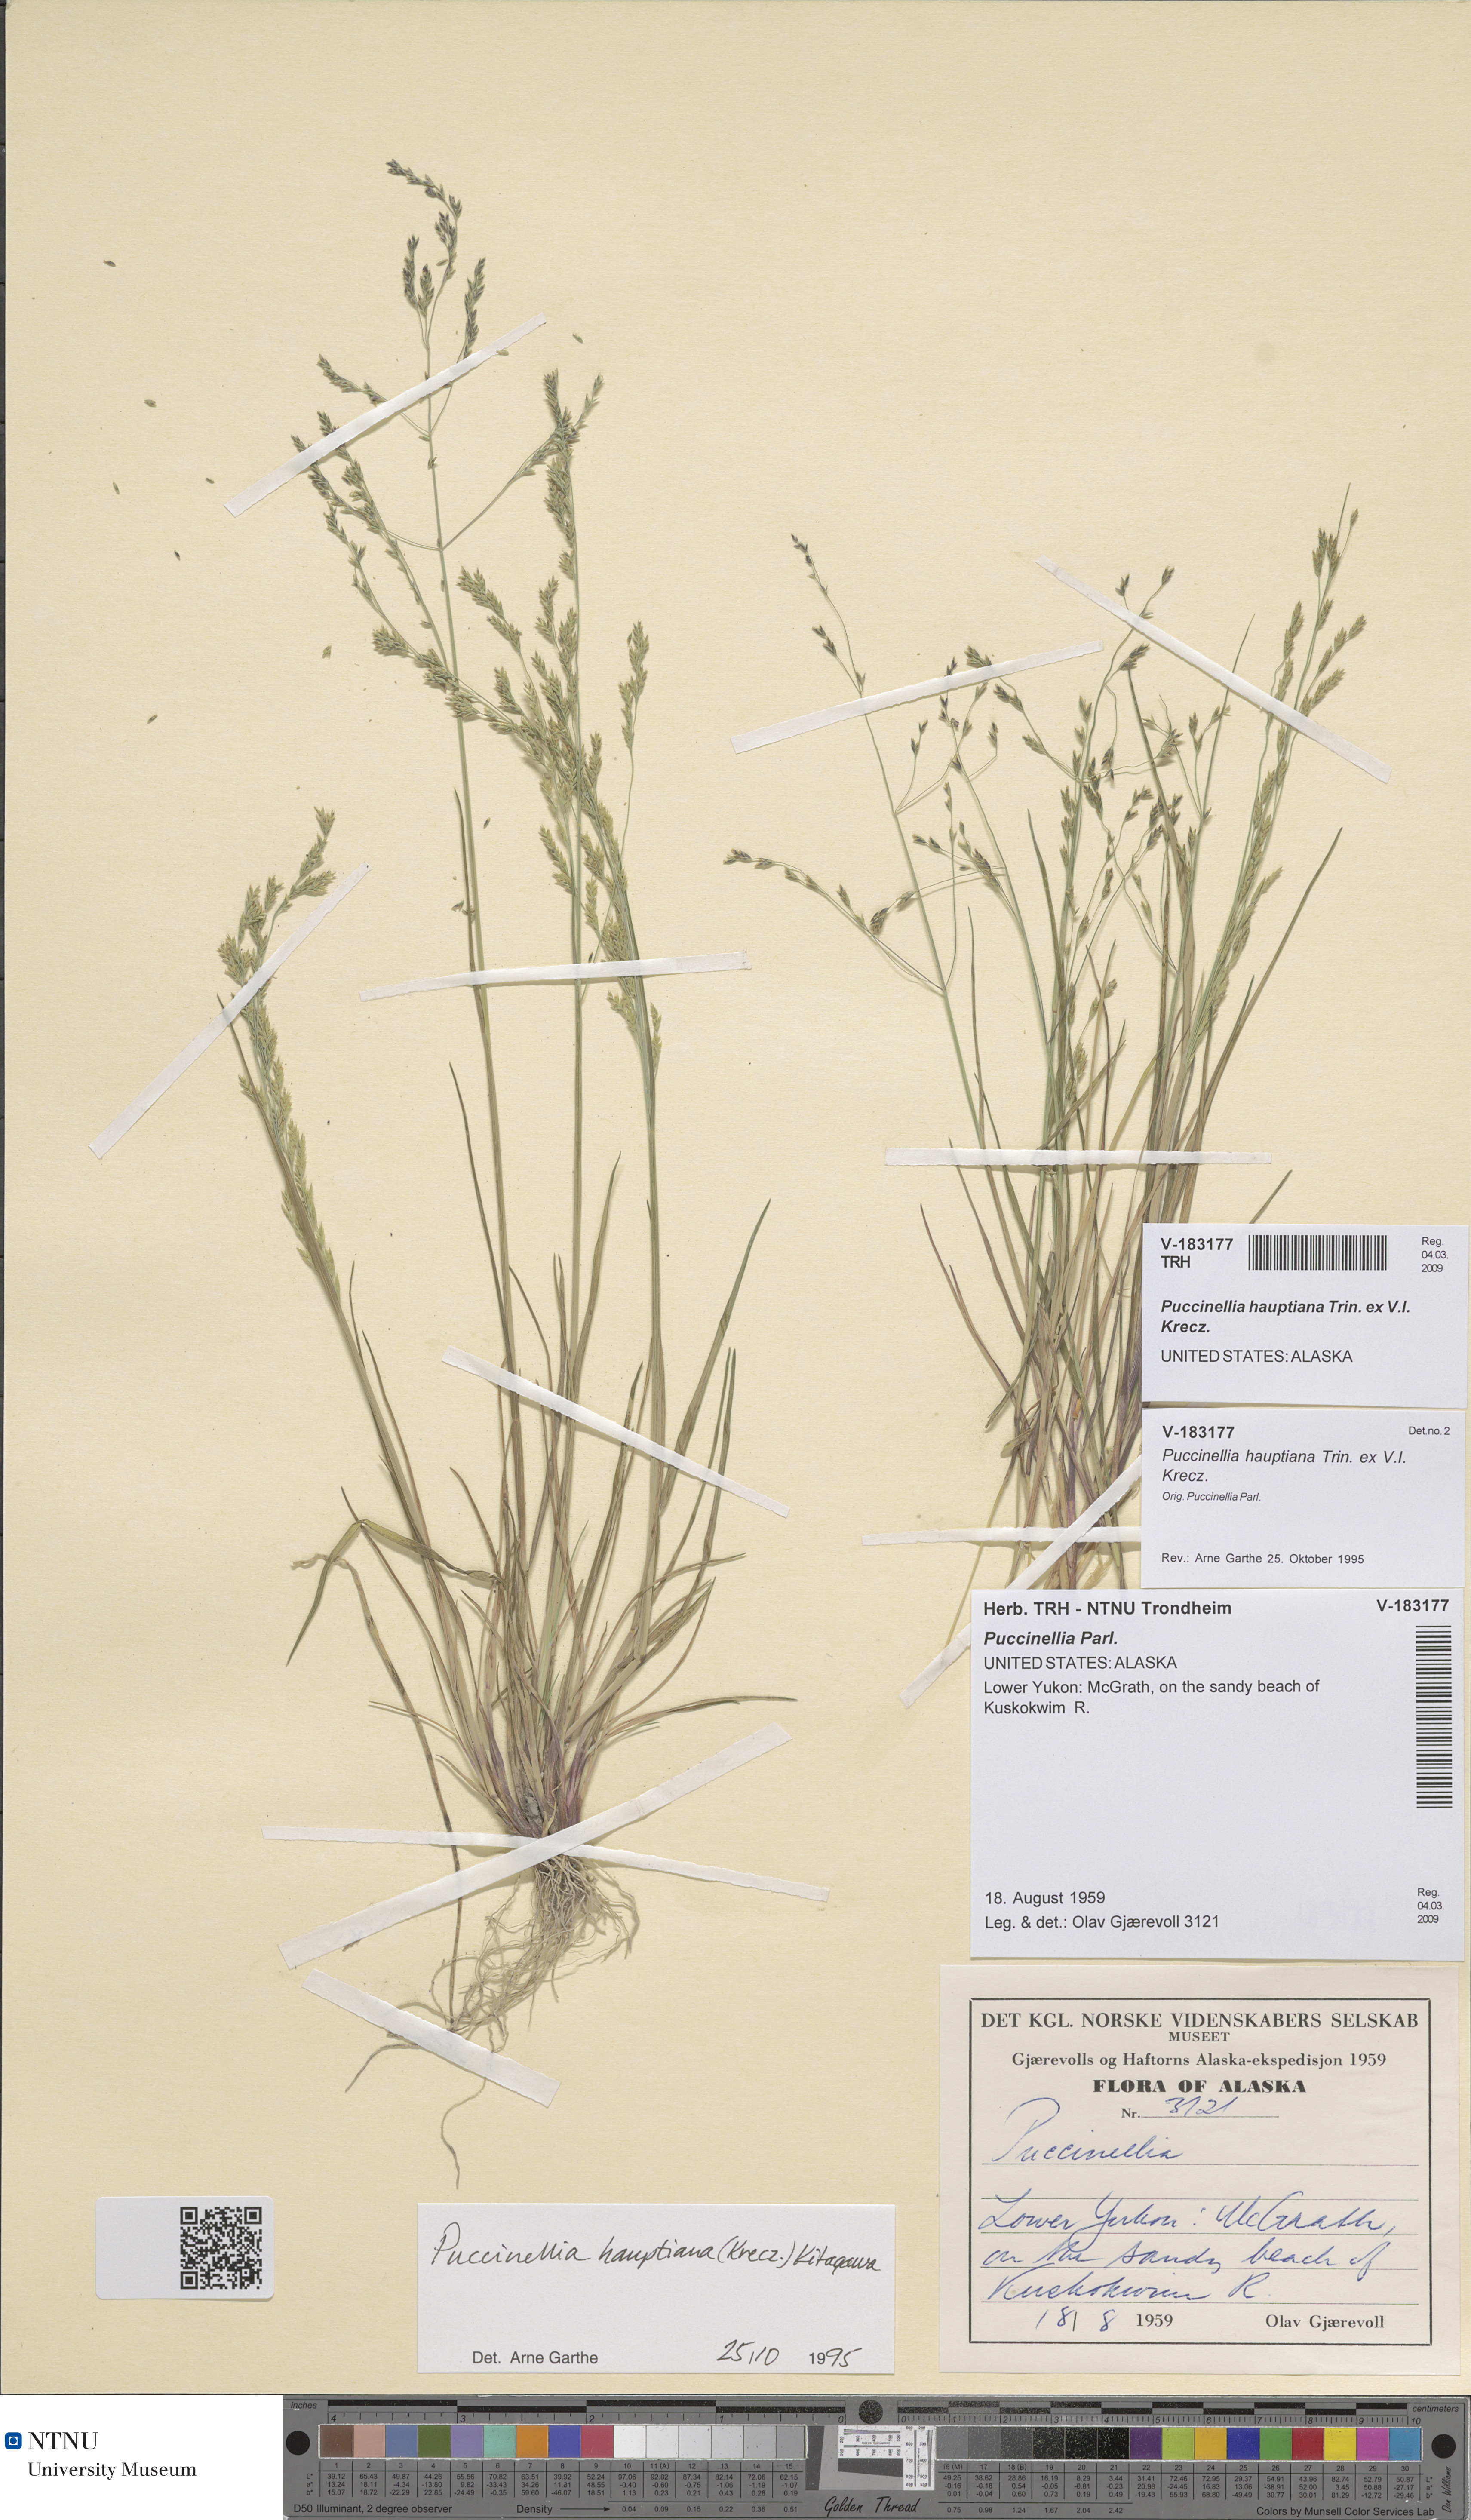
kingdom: Plantae
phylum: Tracheophyta
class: Liliopsida
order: Poales
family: Poaceae
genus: Puccinellia
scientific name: Puccinellia hauptiana
